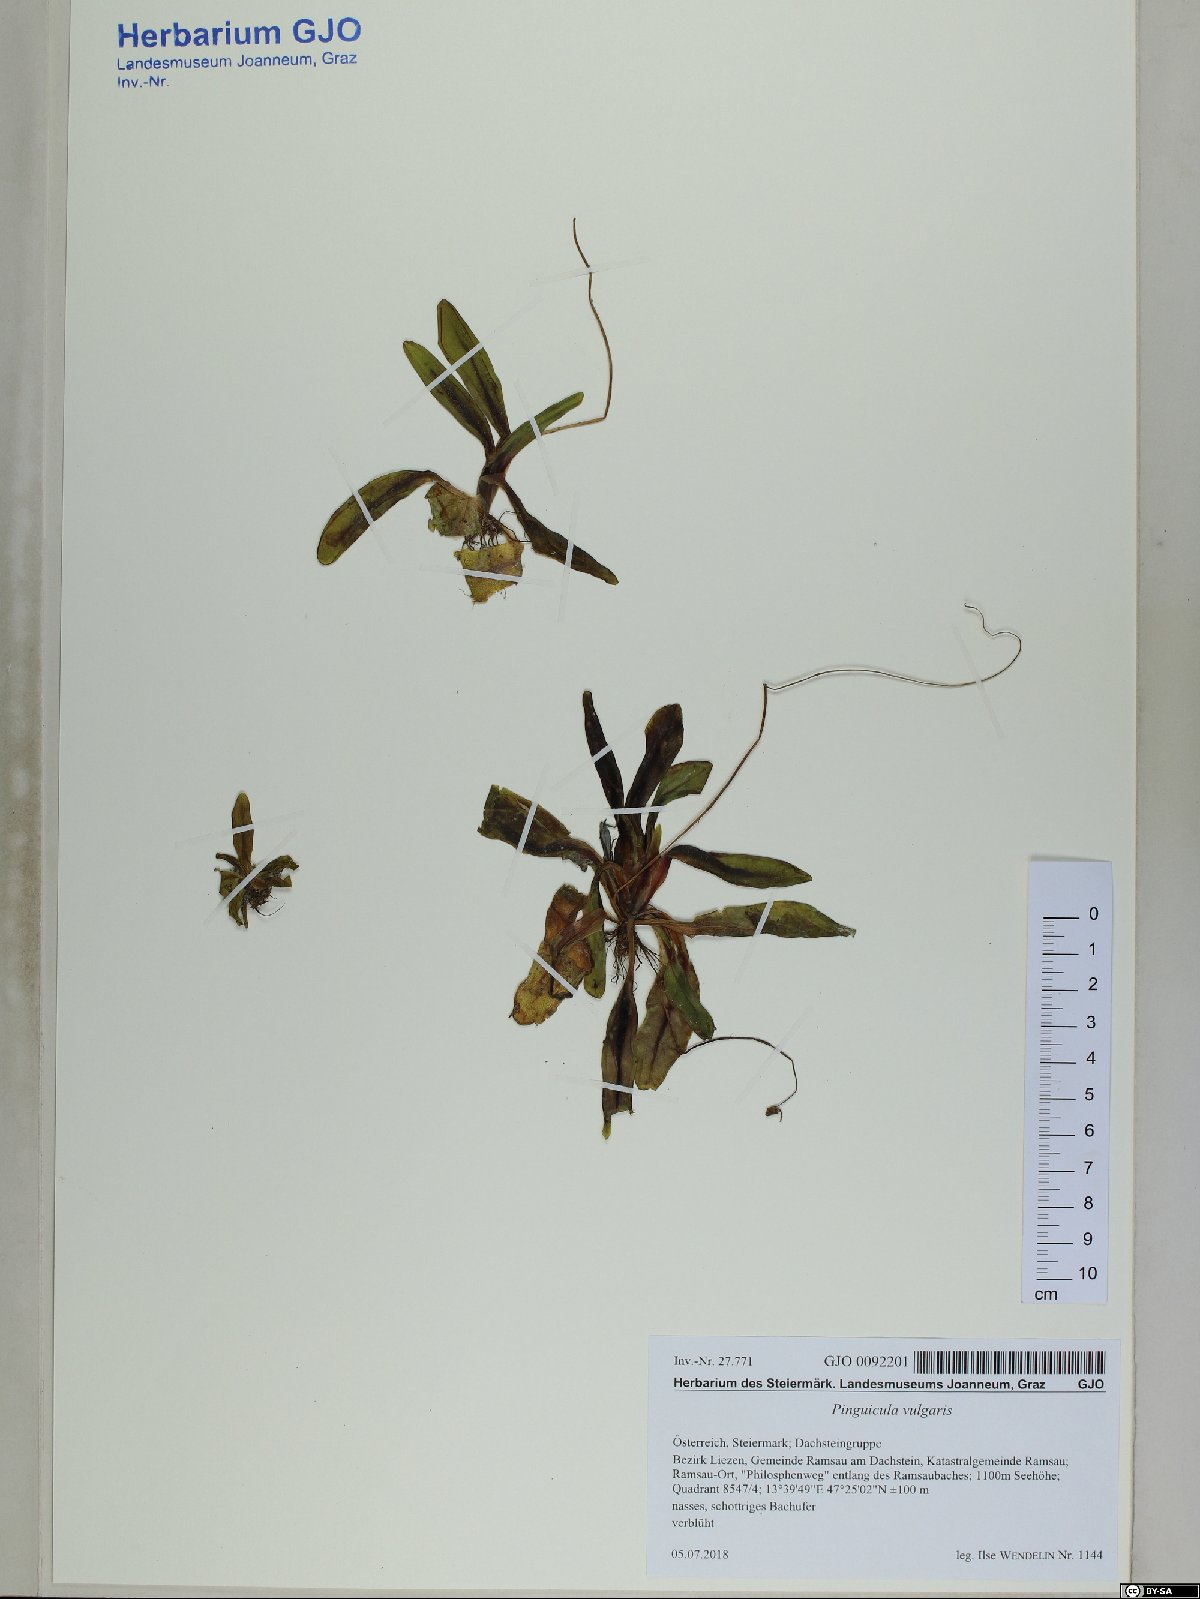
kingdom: Plantae
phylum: Tracheophyta
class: Magnoliopsida
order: Lamiales
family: Lentibulariaceae
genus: Pinguicula
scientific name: Pinguicula vulgaris
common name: Common butterwort
